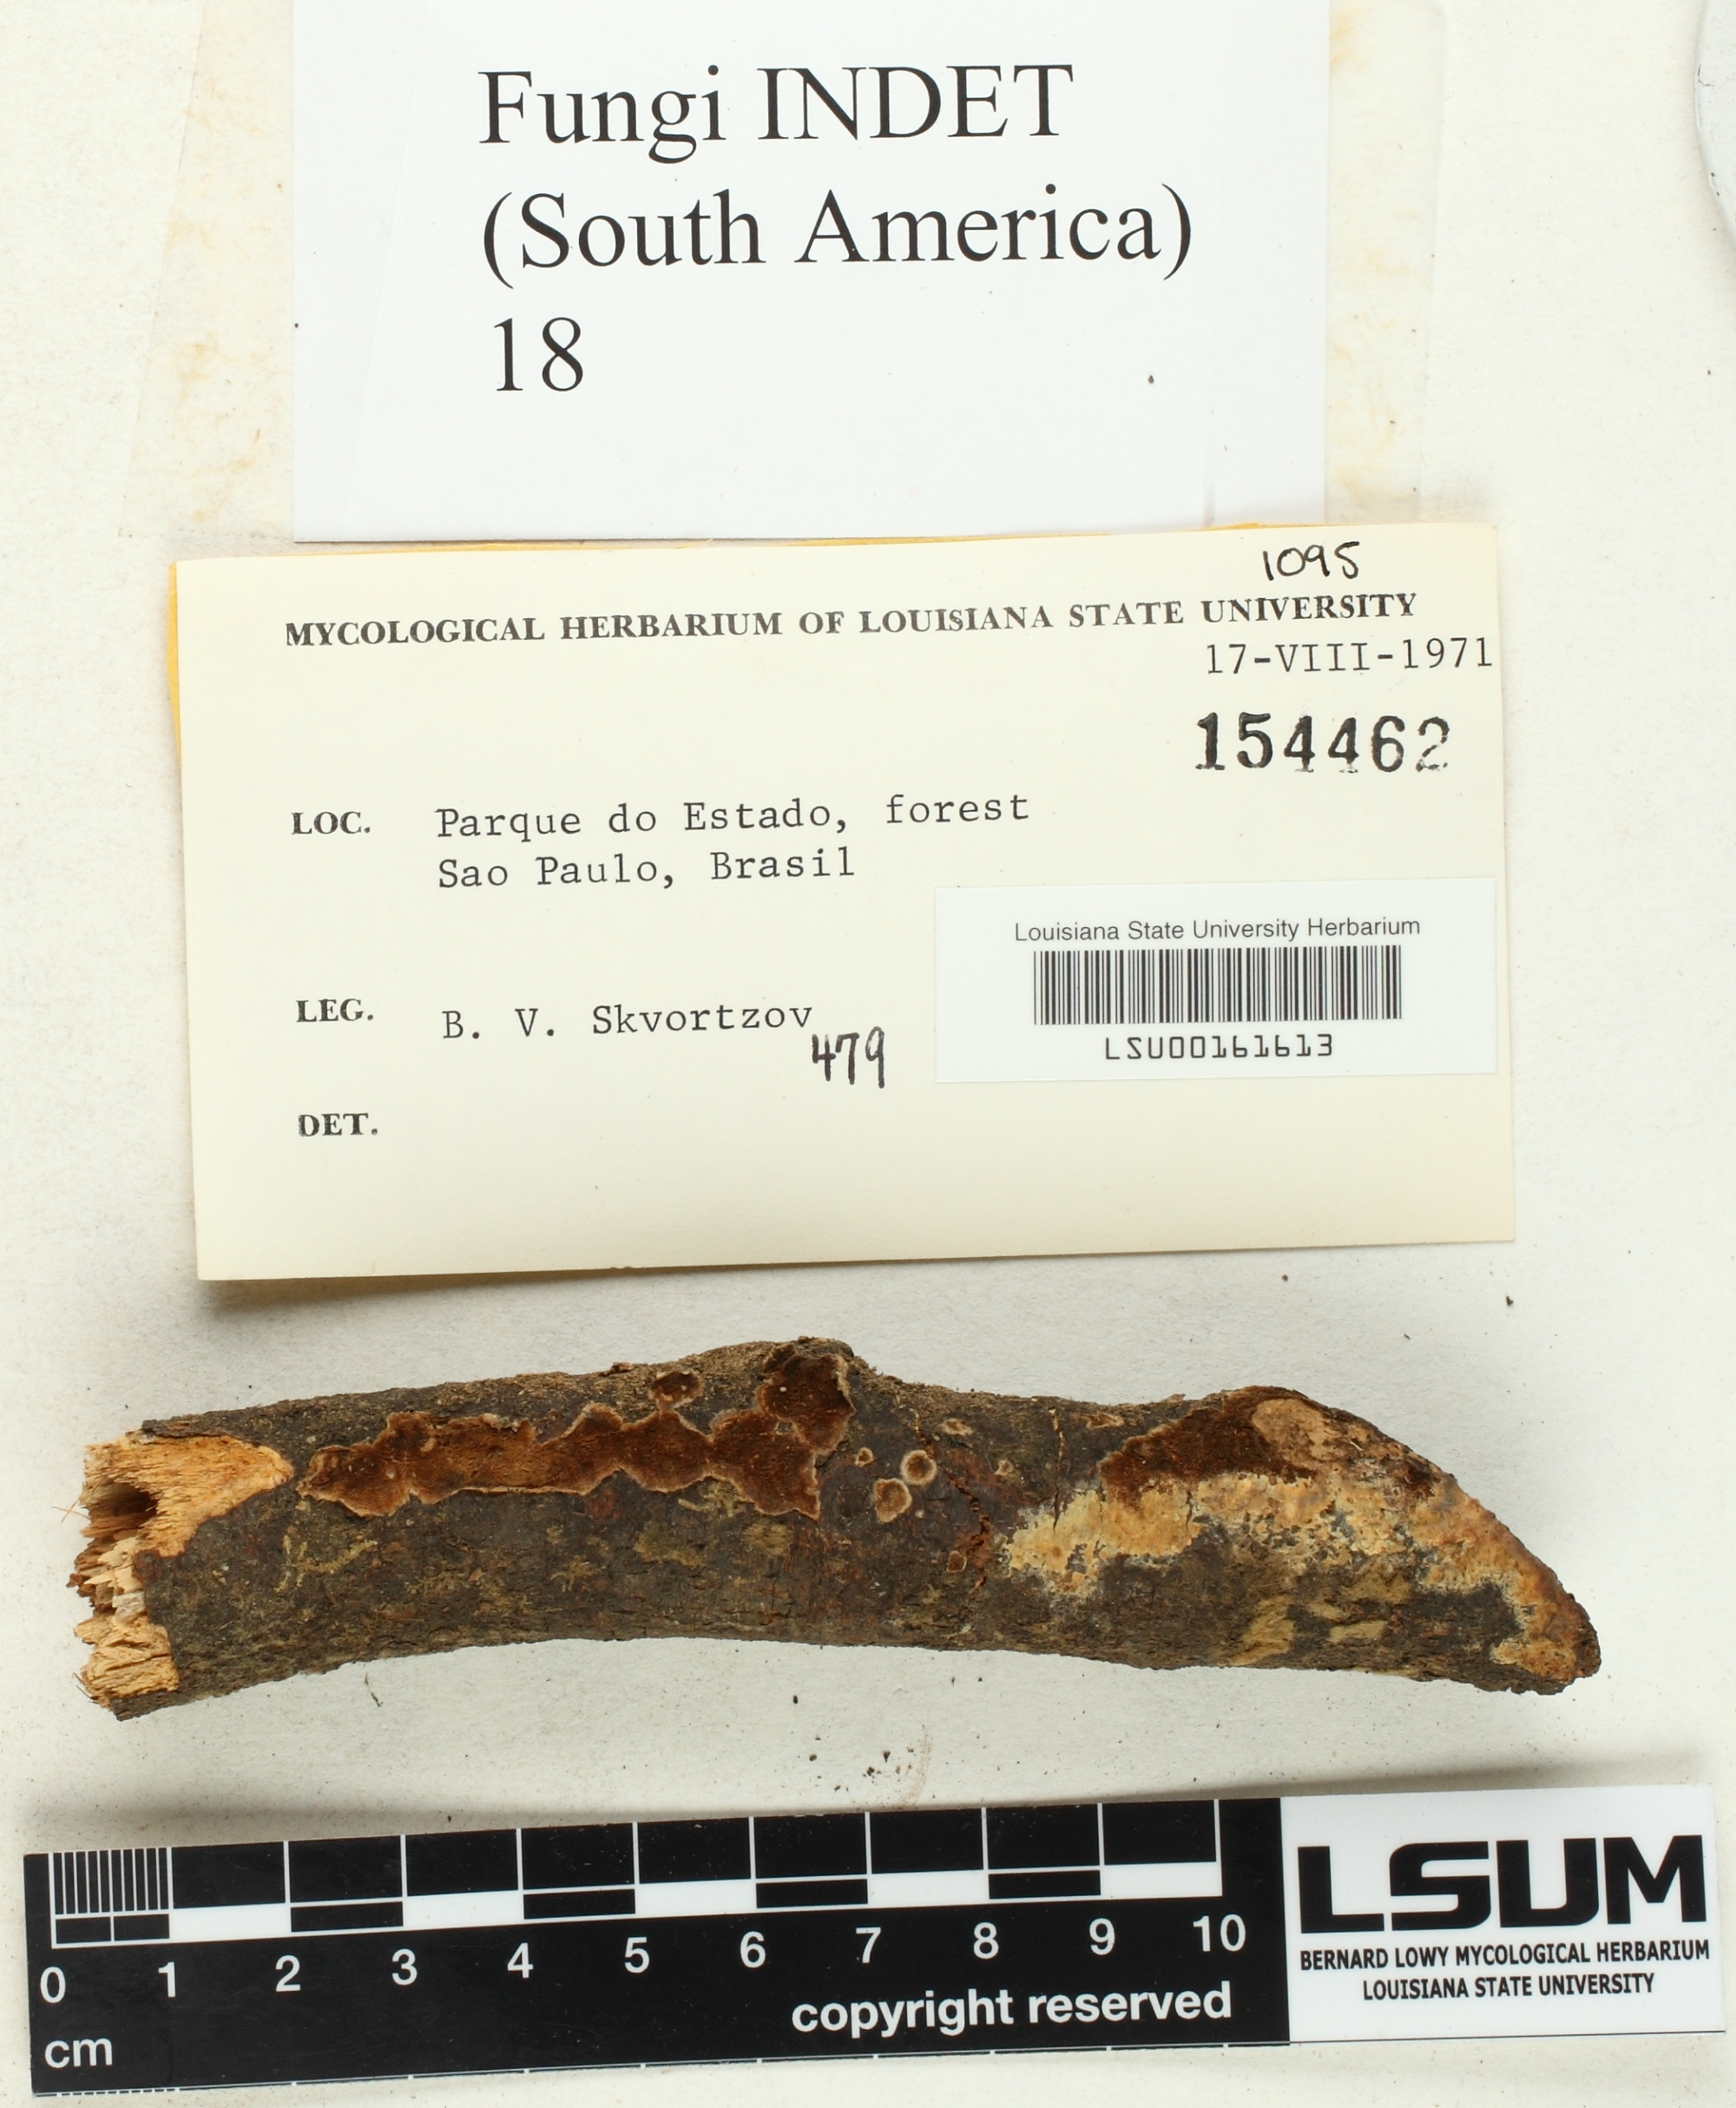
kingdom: Fungi
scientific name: Fungi
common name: Fungi
